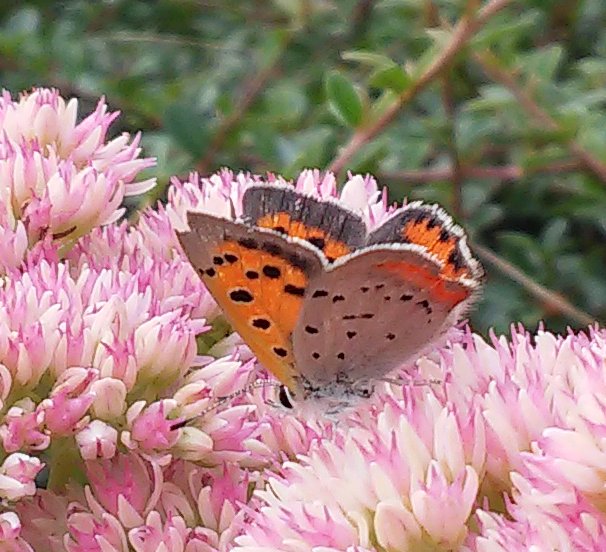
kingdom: Animalia
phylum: Arthropoda
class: Insecta
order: Lepidoptera
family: Lycaenidae
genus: Lycaena
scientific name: Lycaena phlaeas
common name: American Copper
